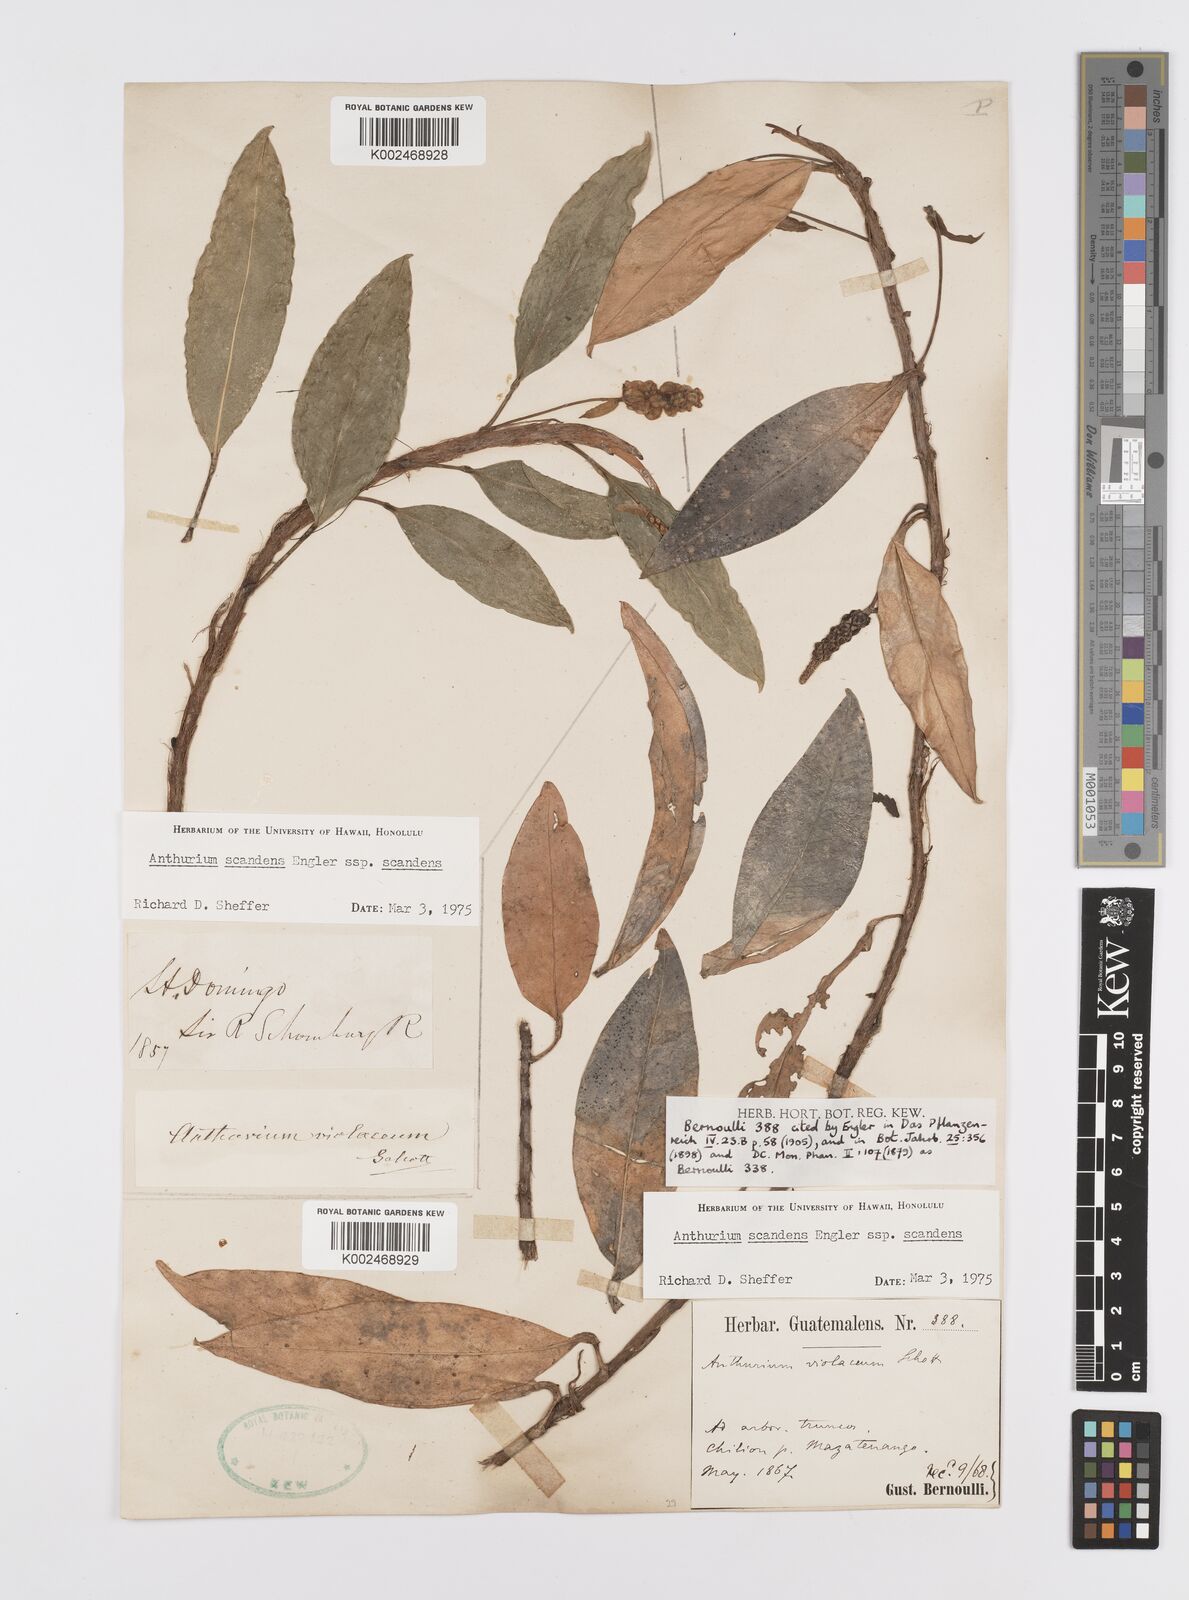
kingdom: Plantae
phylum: Tracheophyta
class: Liliopsida
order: Alismatales
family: Araceae
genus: Anthurium
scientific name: Anthurium scandens
